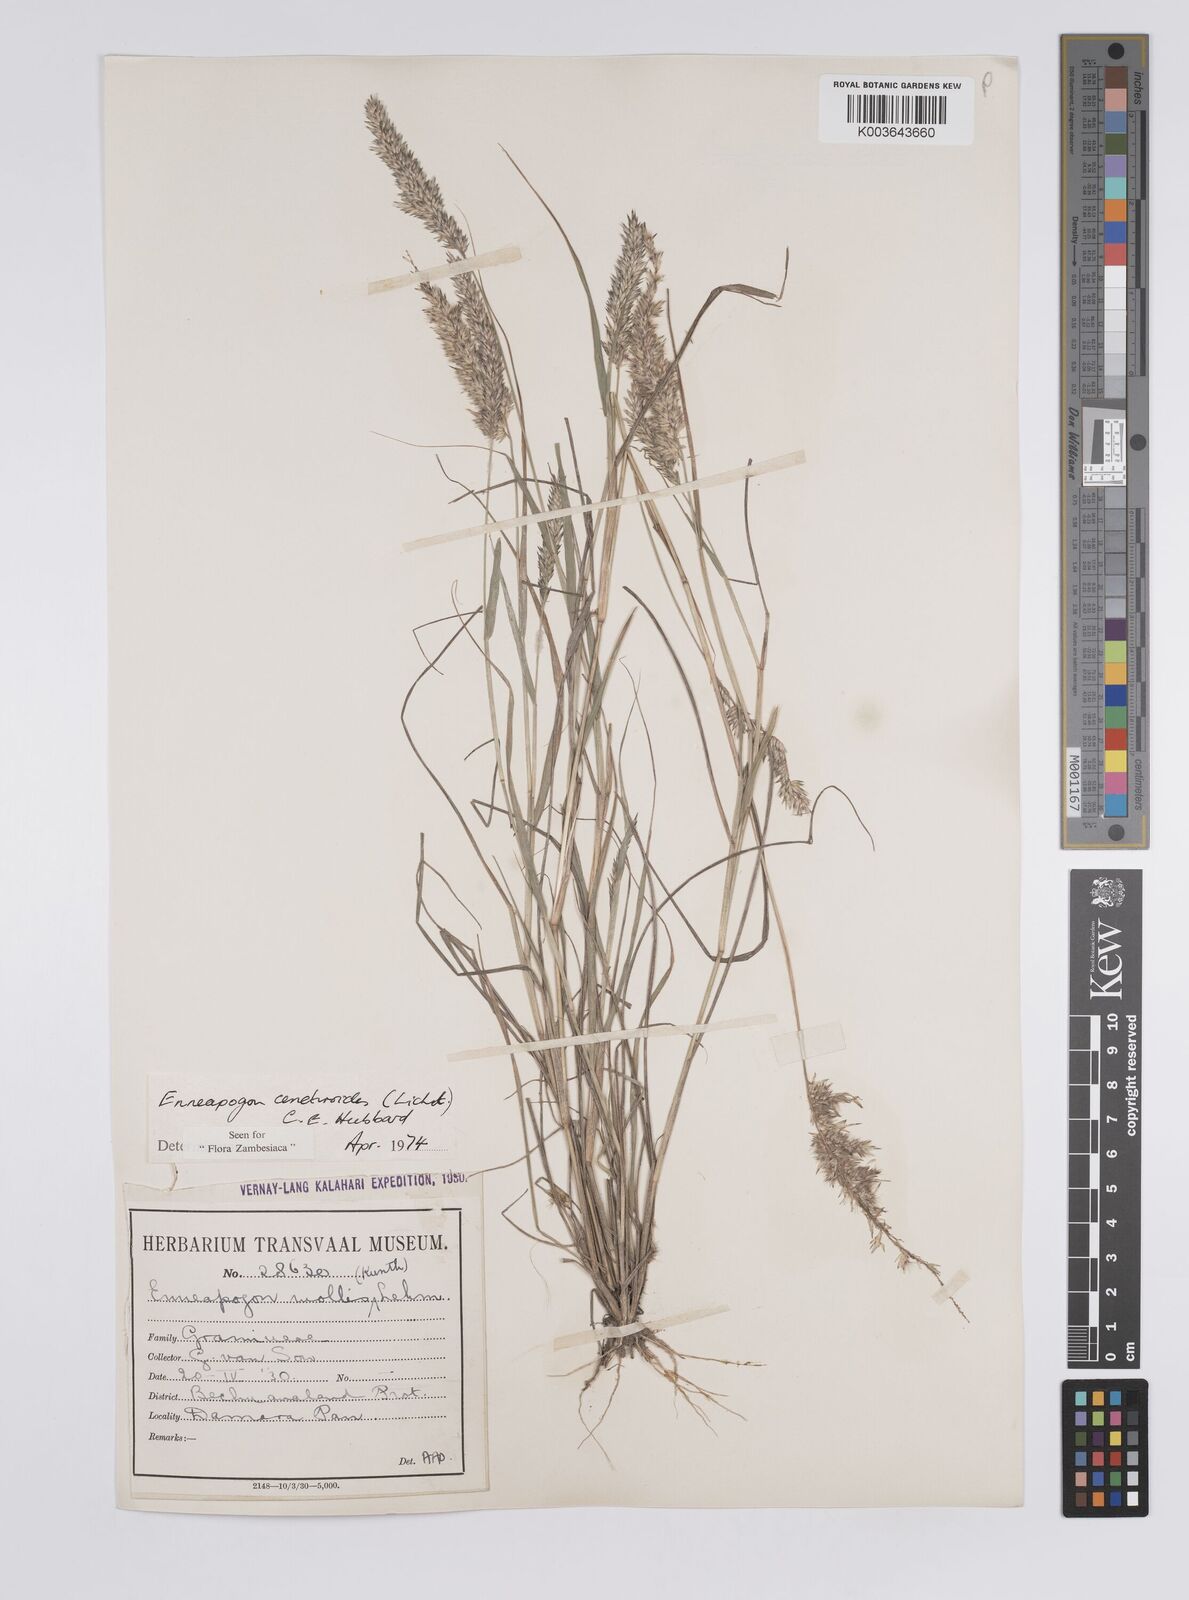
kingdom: Plantae
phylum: Tracheophyta
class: Liliopsida
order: Poales
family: Poaceae
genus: Enneapogon
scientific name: Enneapogon cenchroides
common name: Soft feather pappusgrass
